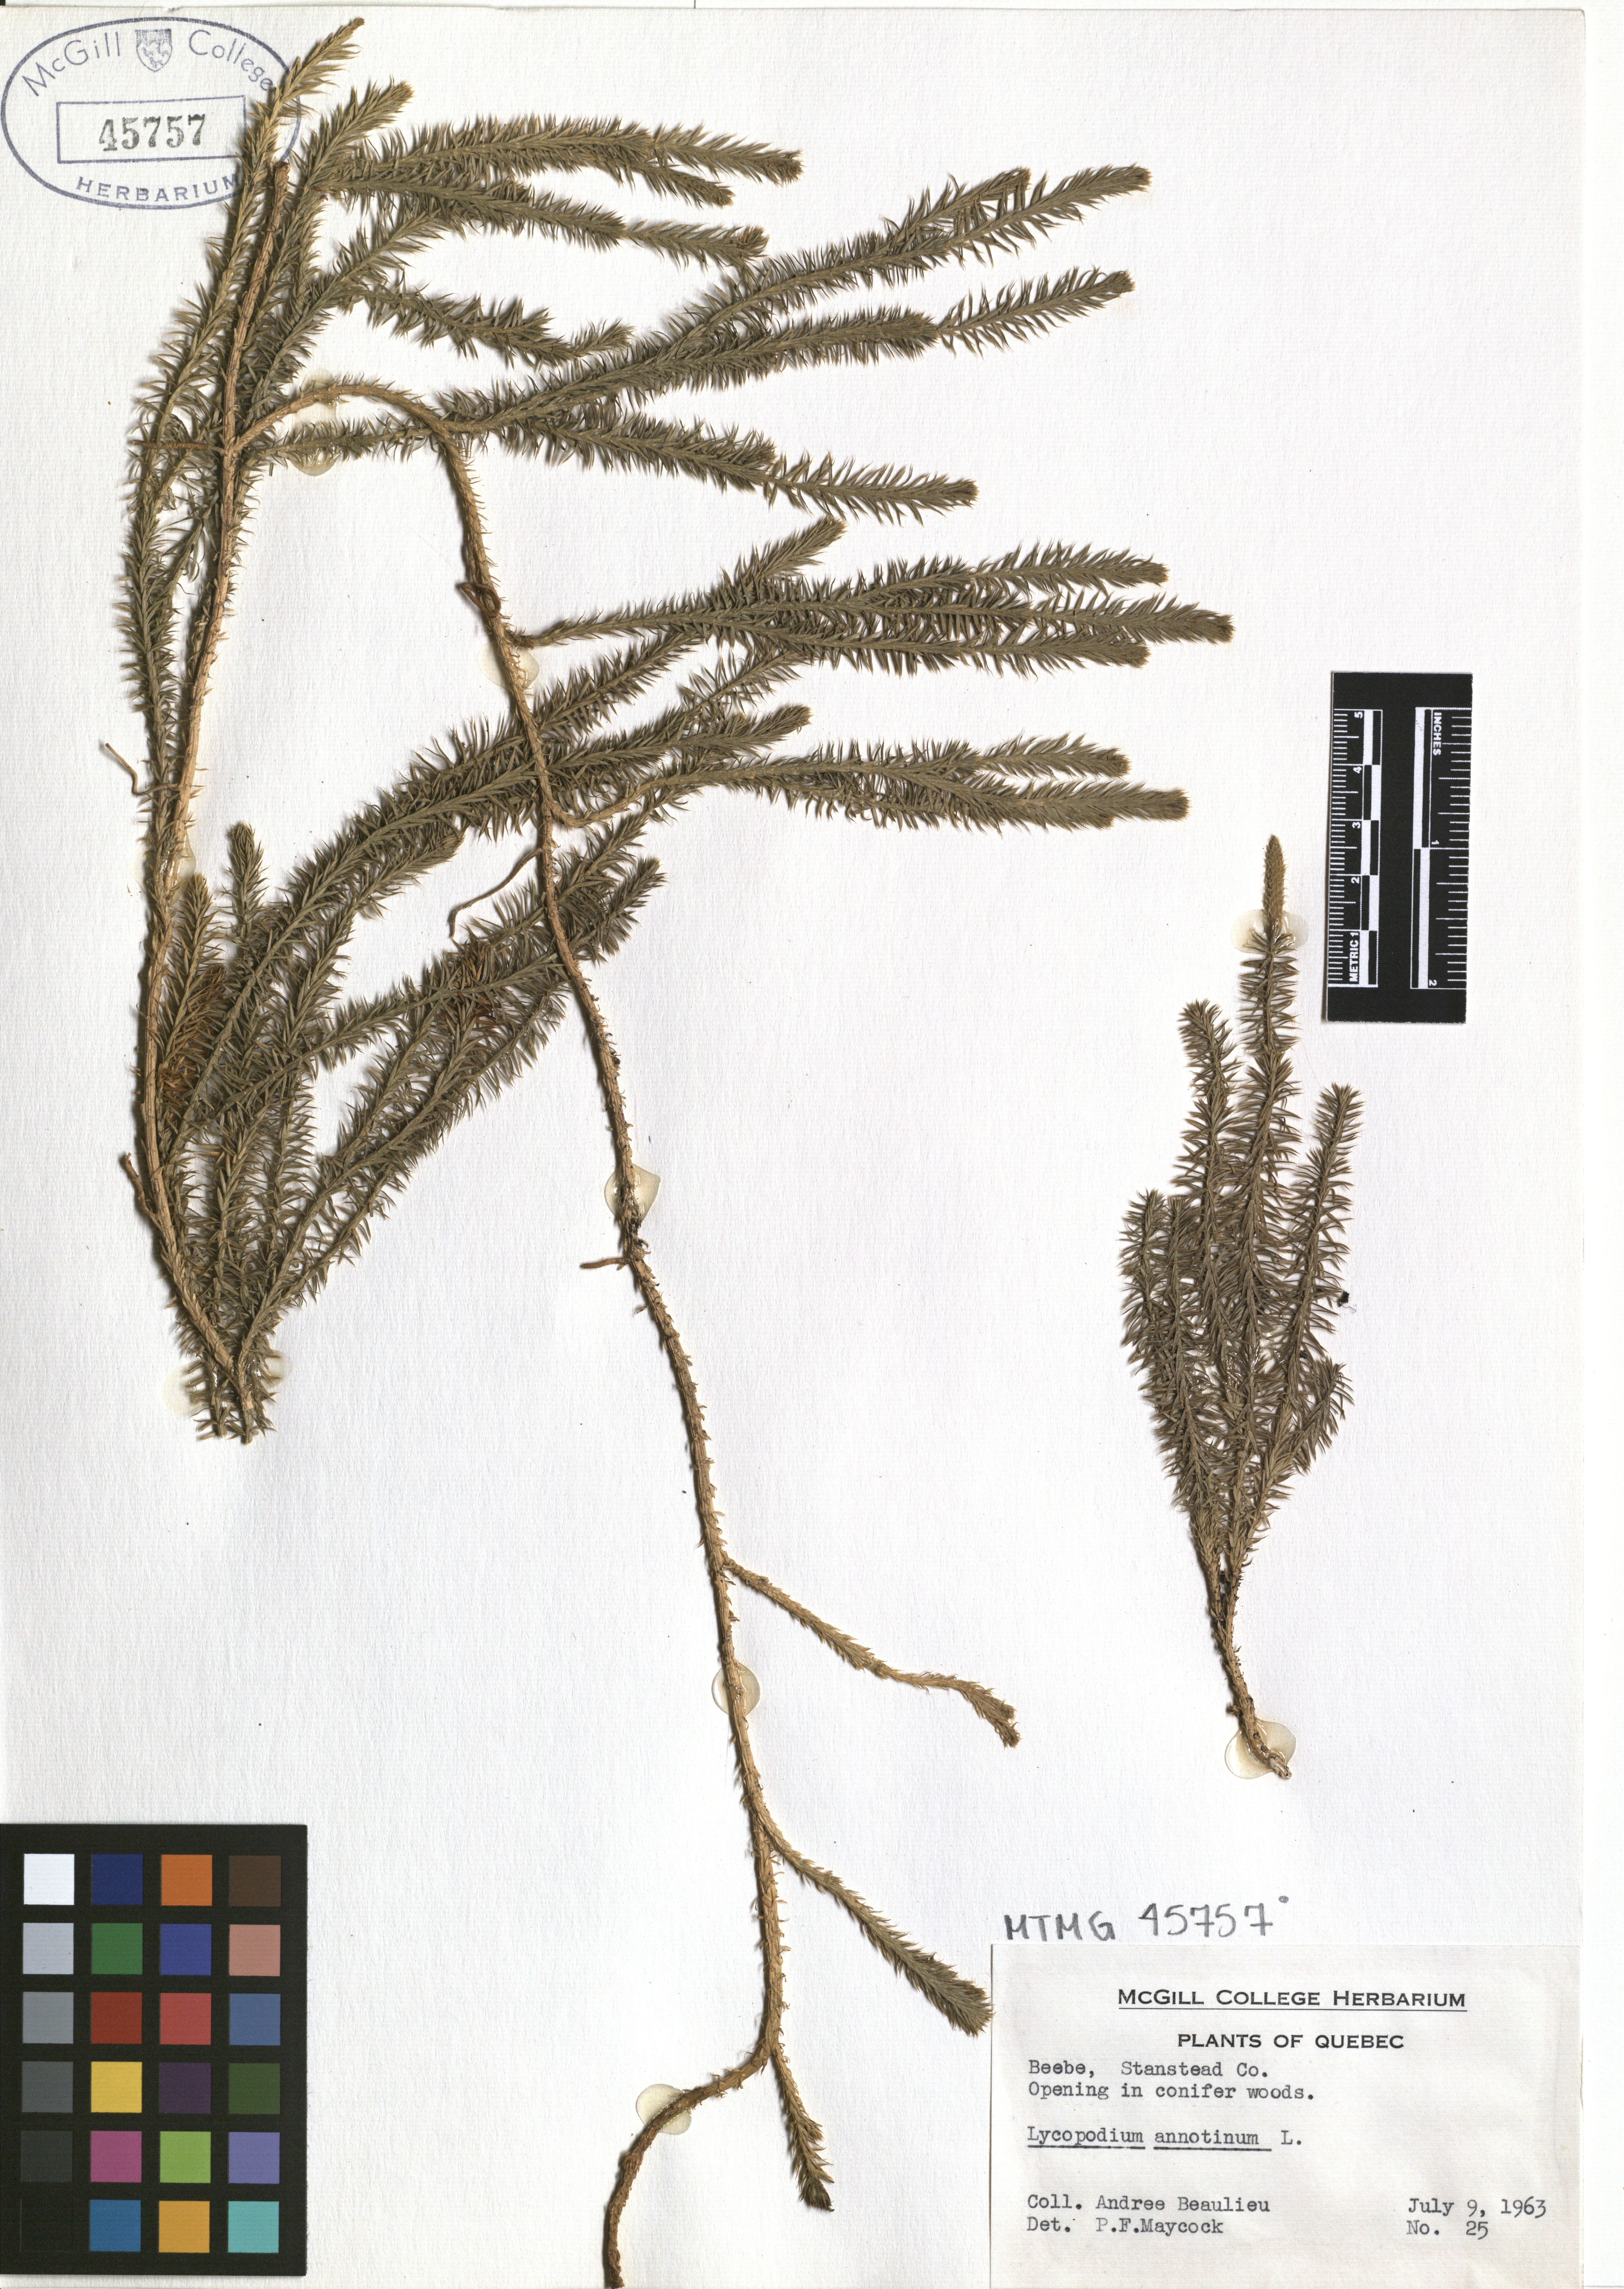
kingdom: Plantae
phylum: Tracheophyta
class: Lycopodiopsida
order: Lycopodiales
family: Lycopodiaceae
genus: Spinulum
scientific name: Spinulum annotinum
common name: Interrupted club-moss
